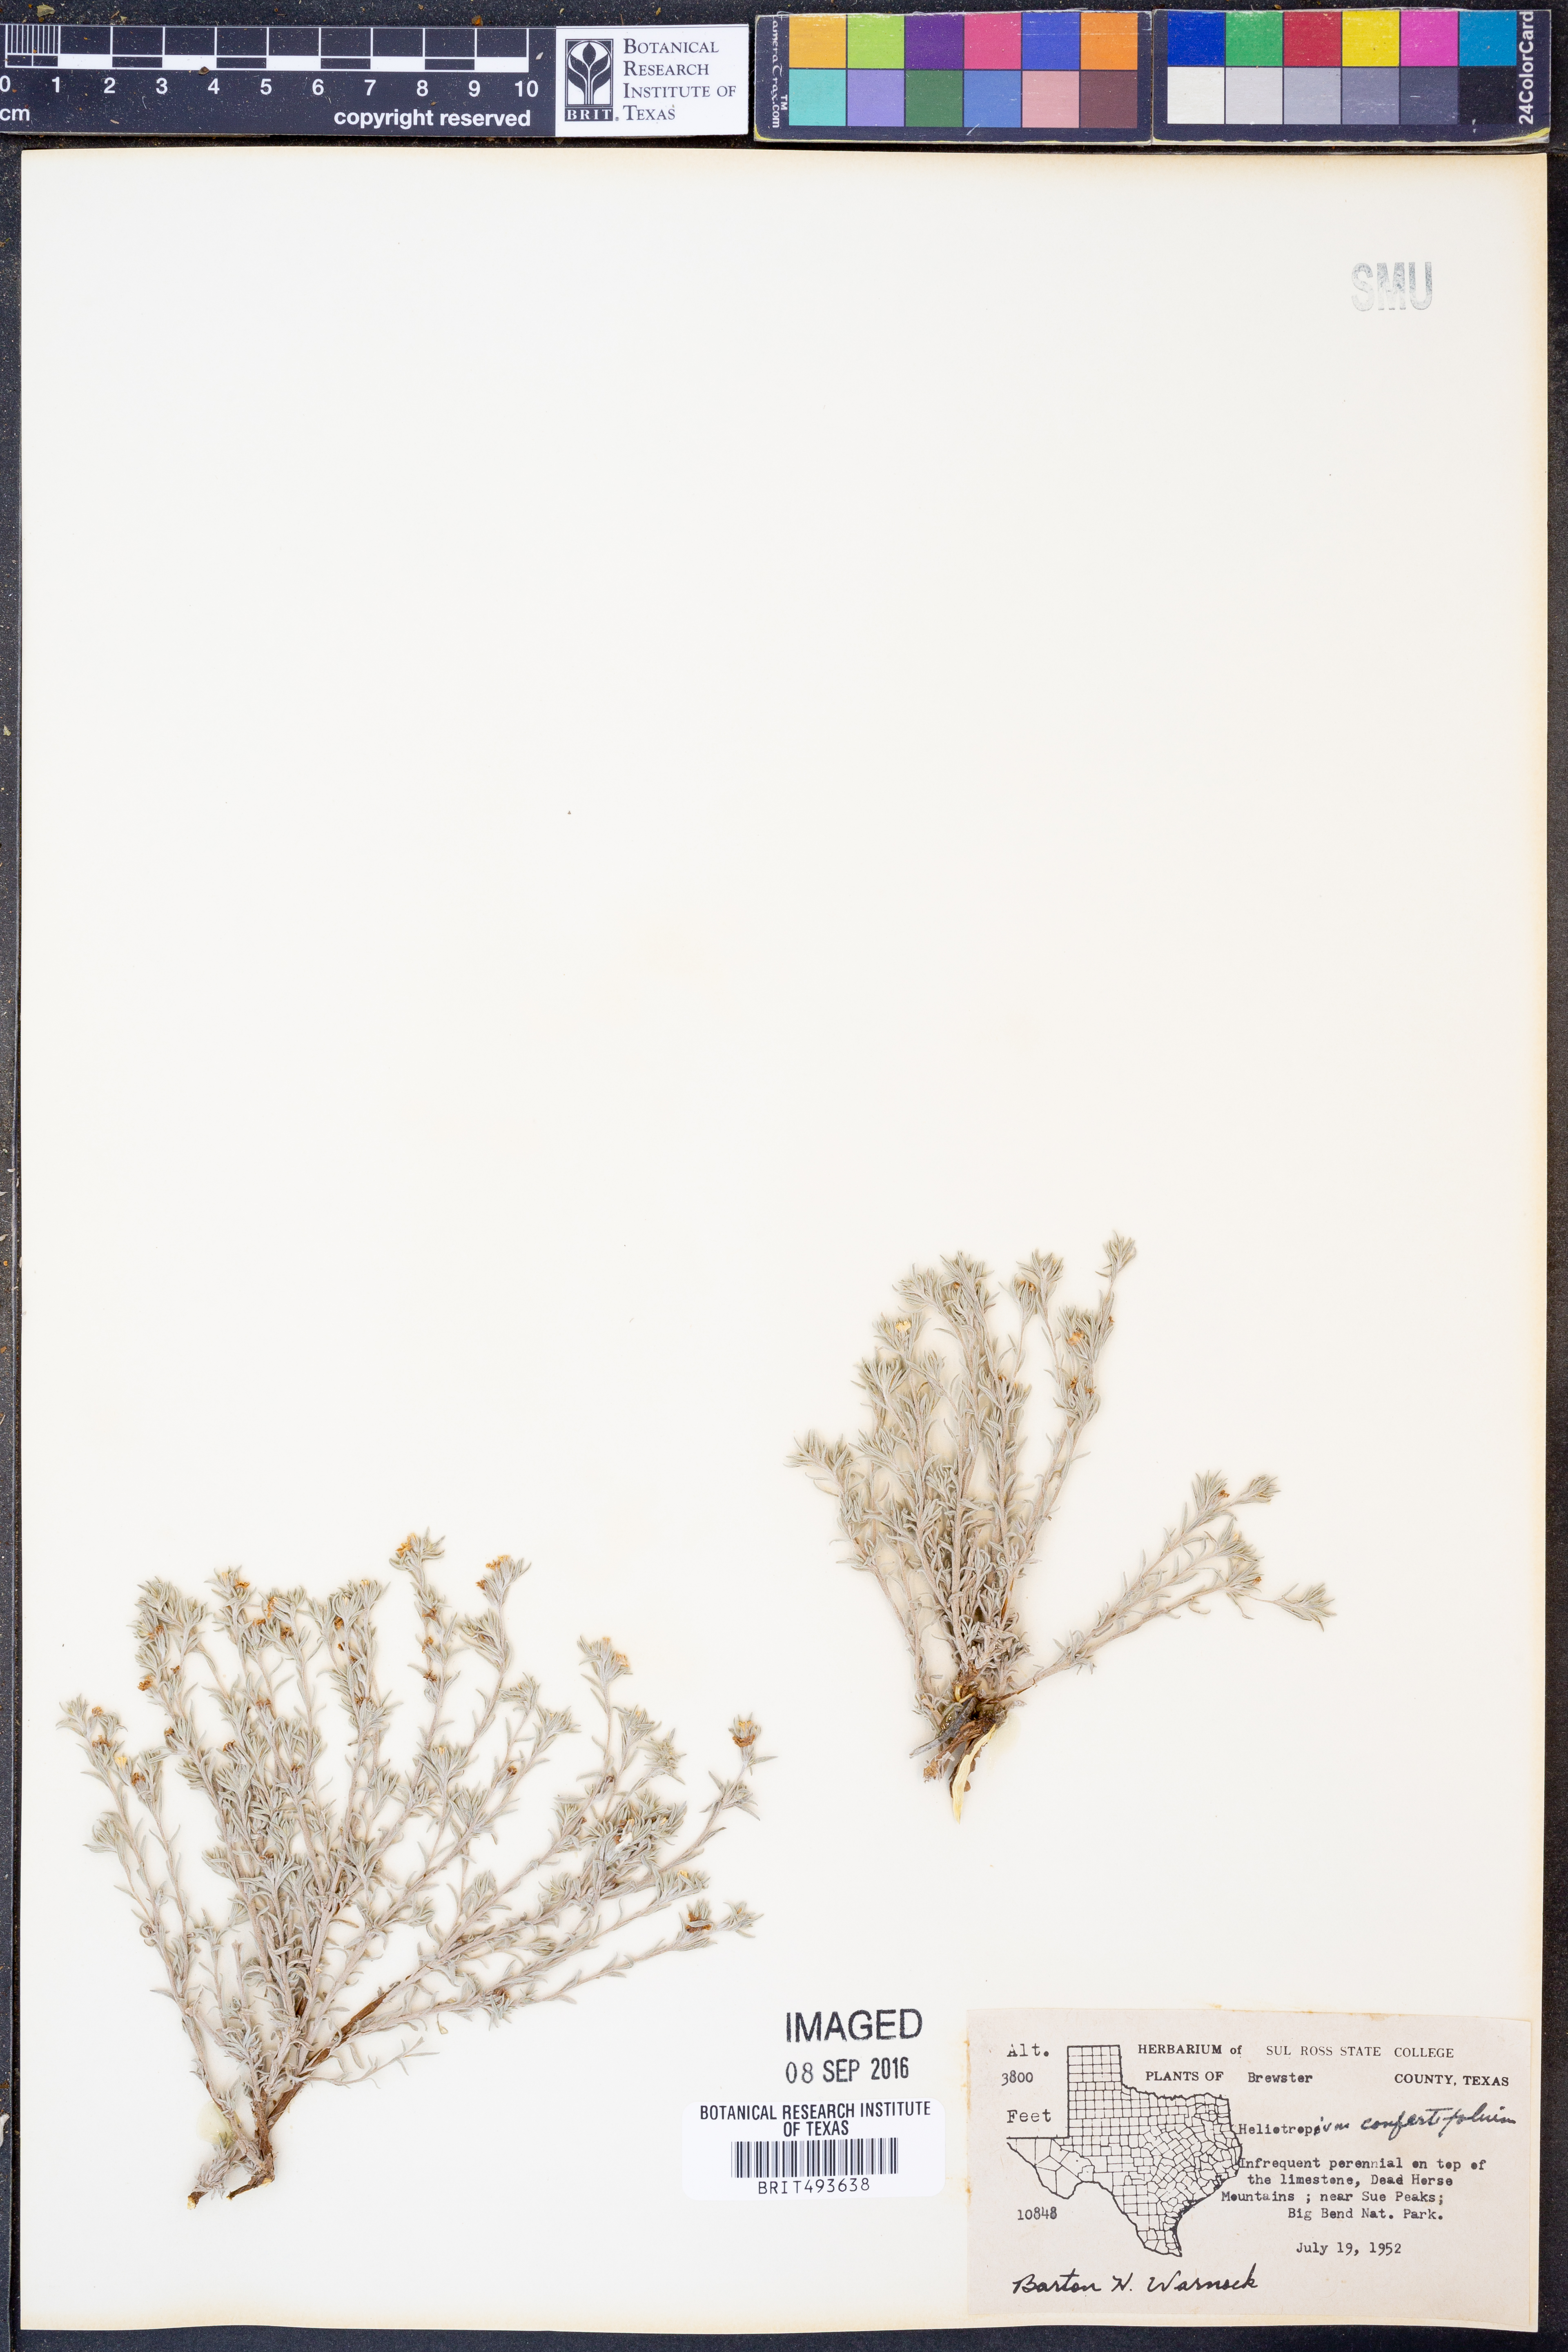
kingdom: Plantae
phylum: Tracheophyta
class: Magnoliopsida
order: Boraginales
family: Heliotropiaceae
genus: Euploca
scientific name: Euploca confertifolia
